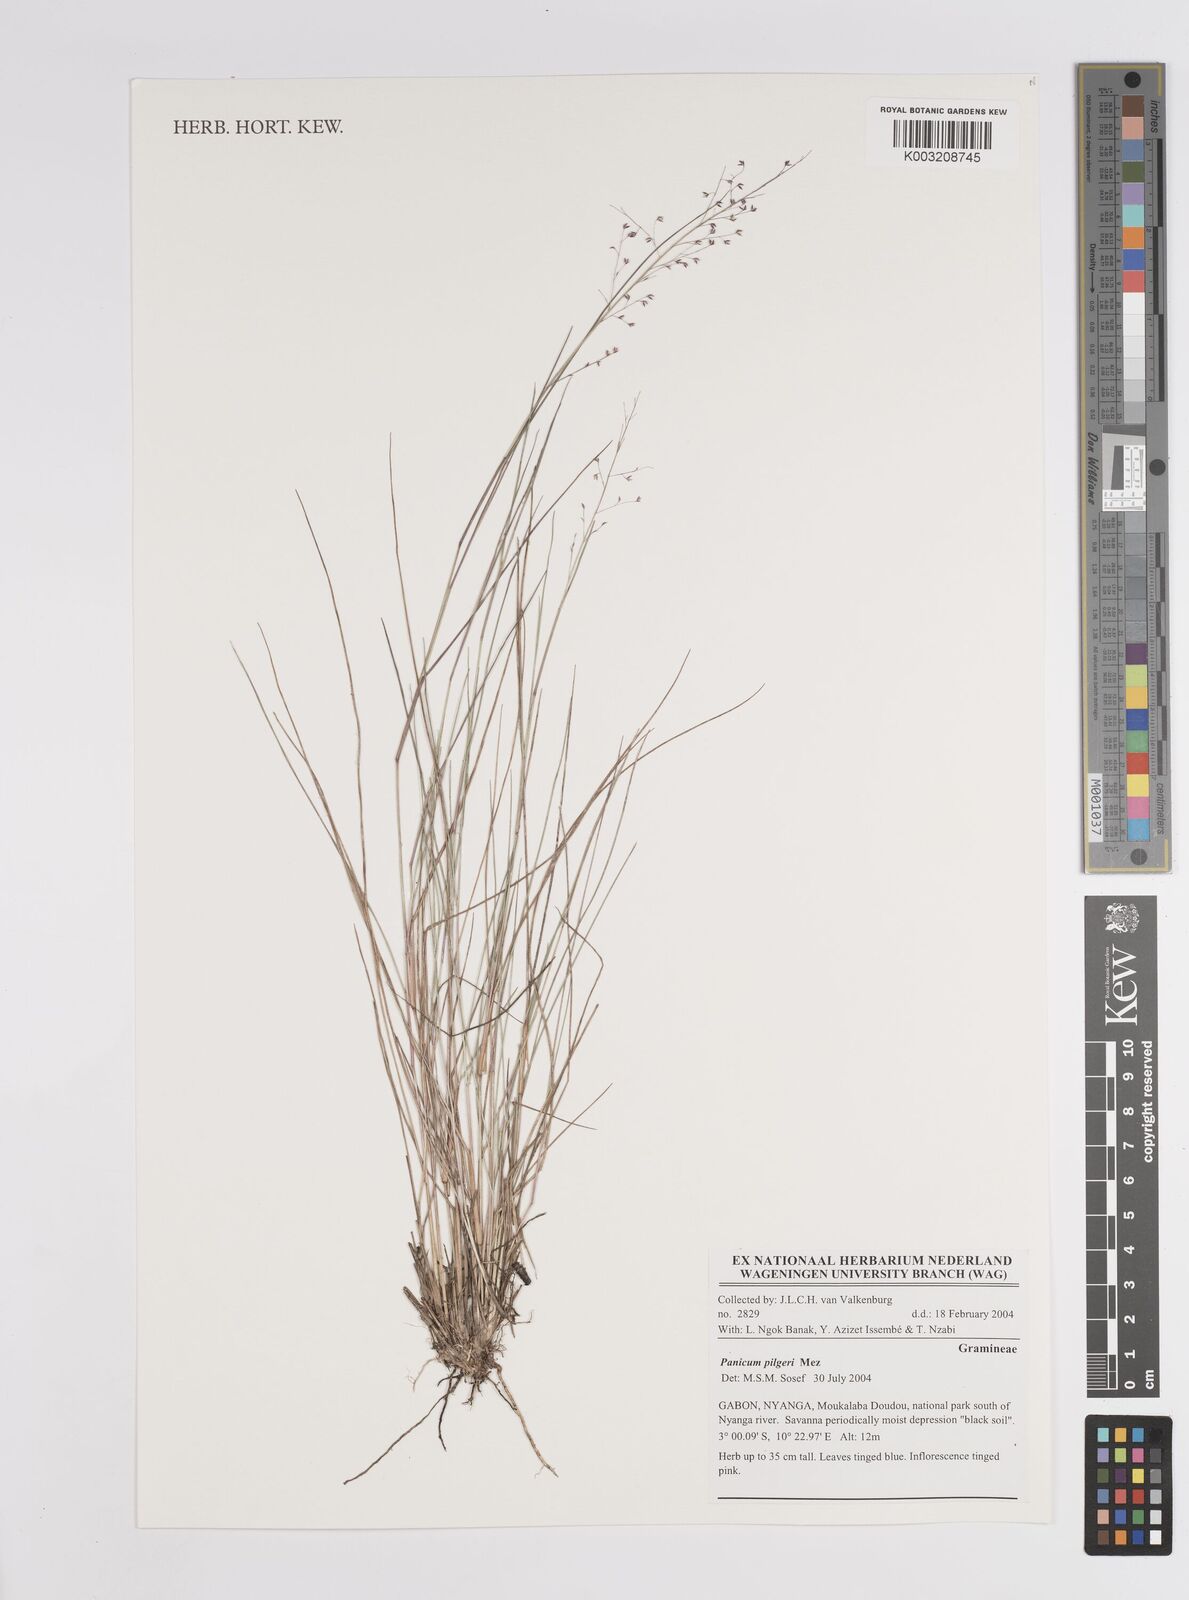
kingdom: Plantae
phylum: Tracheophyta
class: Liliopsida
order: Poales
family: Poaceae
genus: Panicum
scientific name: Panicum pilgeri
